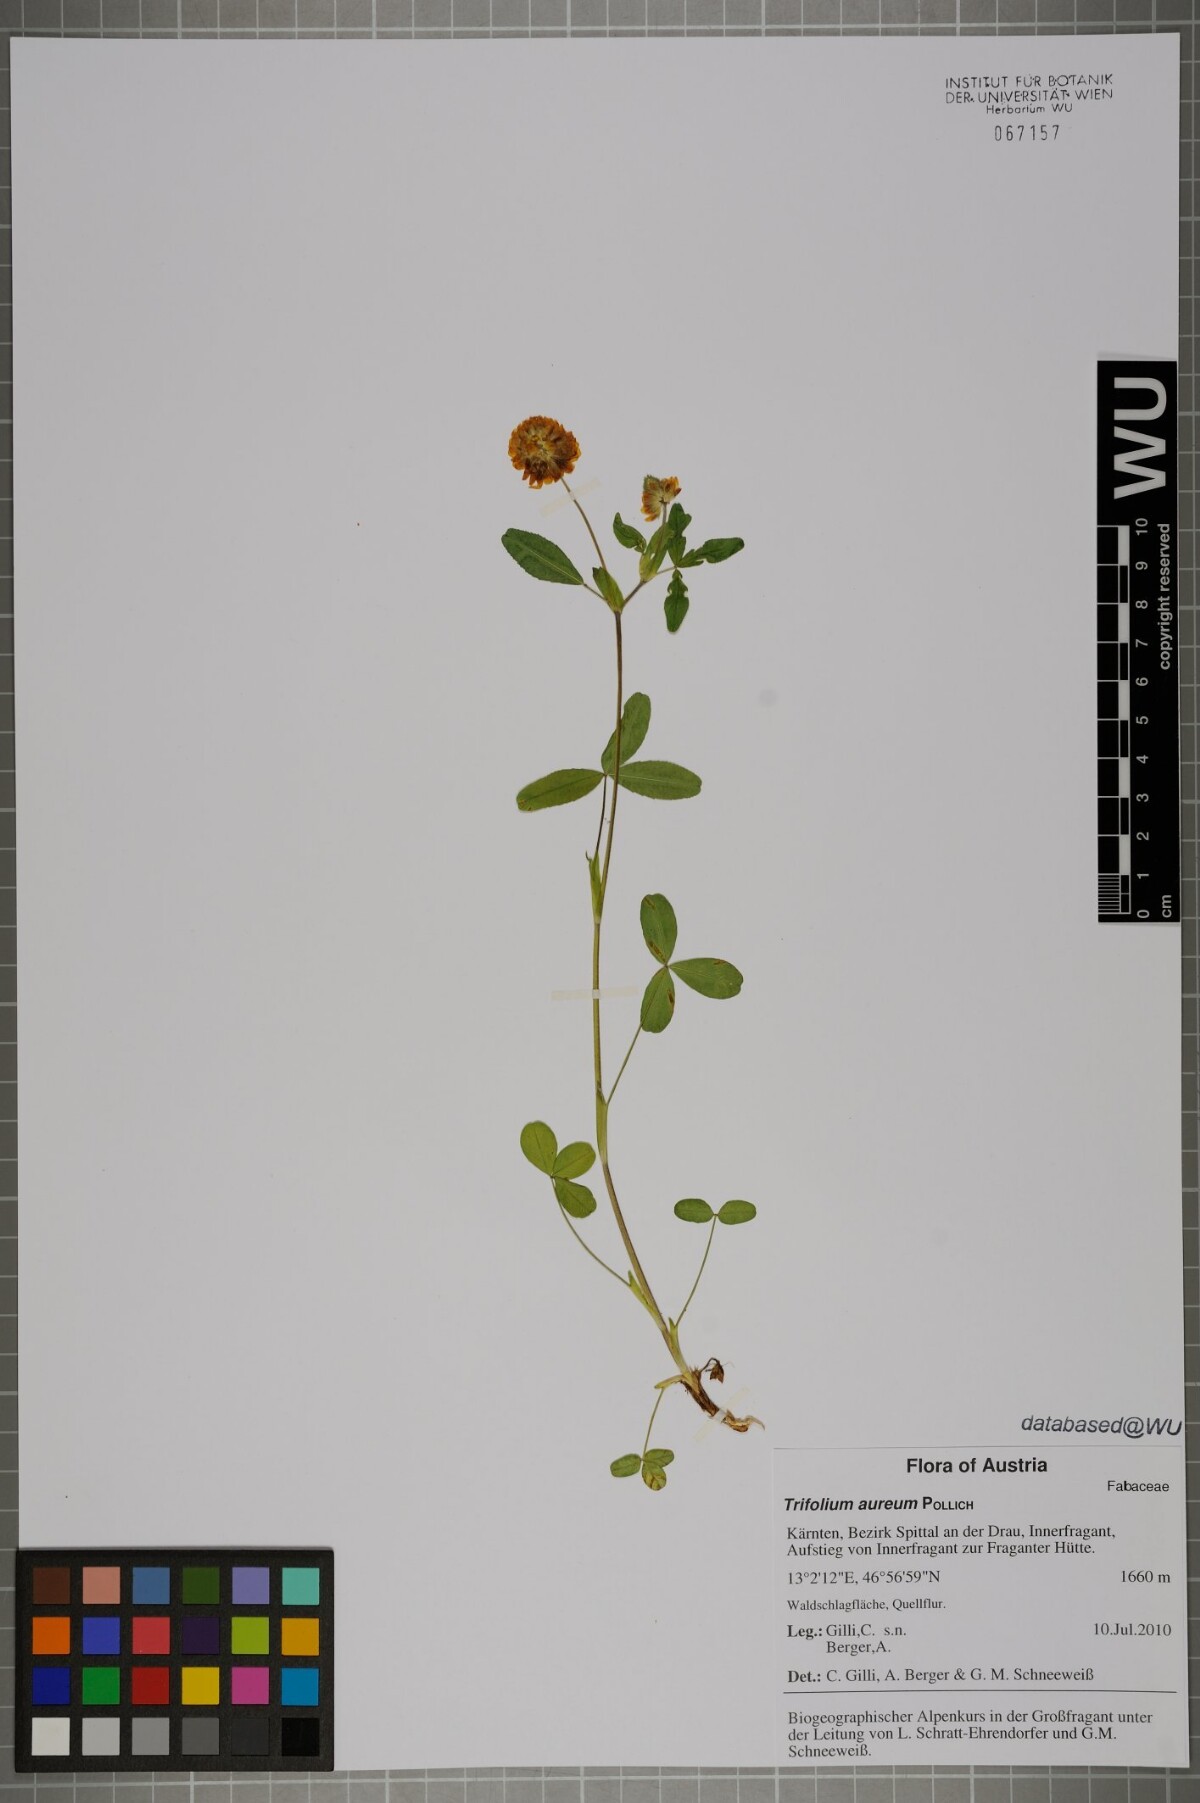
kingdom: Plantae
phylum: Tracheophyta
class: Magnoliopsida
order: Fabales
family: Fabaceae
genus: Trifolium
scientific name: Trifolium aureum
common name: Golden clover
